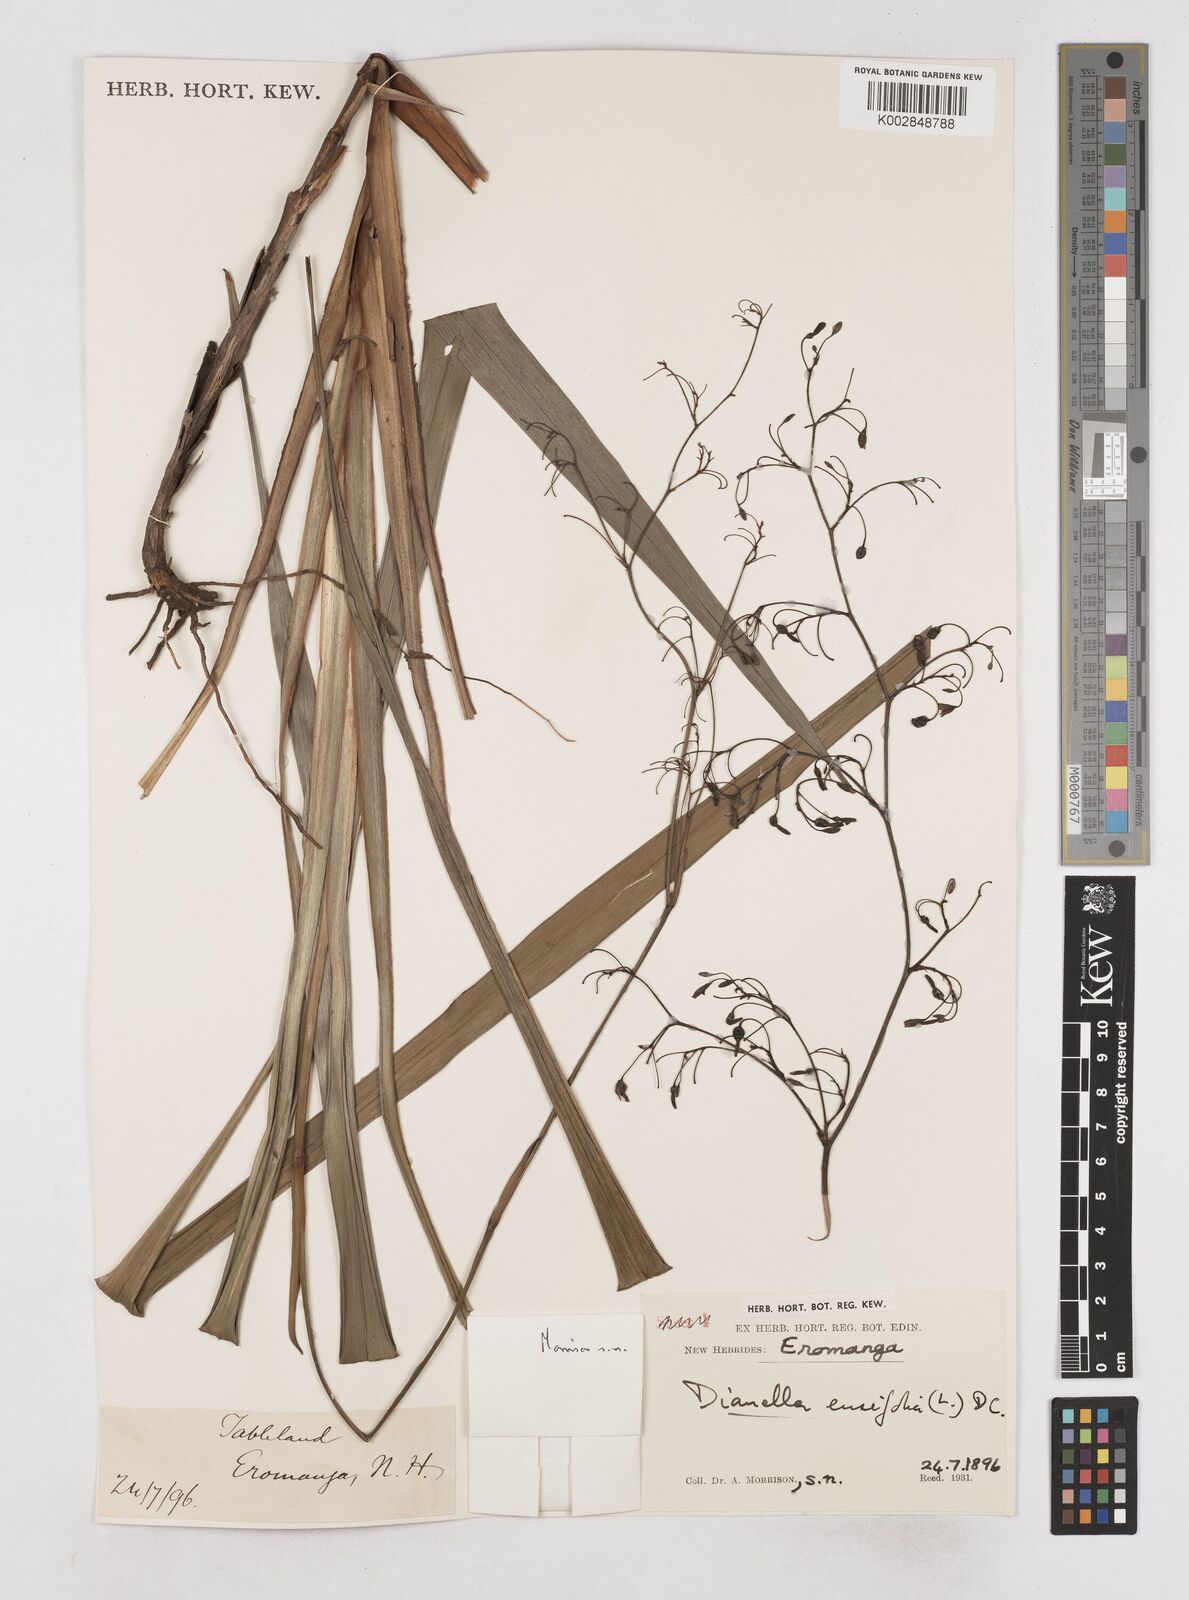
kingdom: Plantae
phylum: Tracheophyta
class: Liliopsida
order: Asparagales
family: Asphodelaceae
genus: Dianella
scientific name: Dianella ensifolia
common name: New zealand lilyplant
